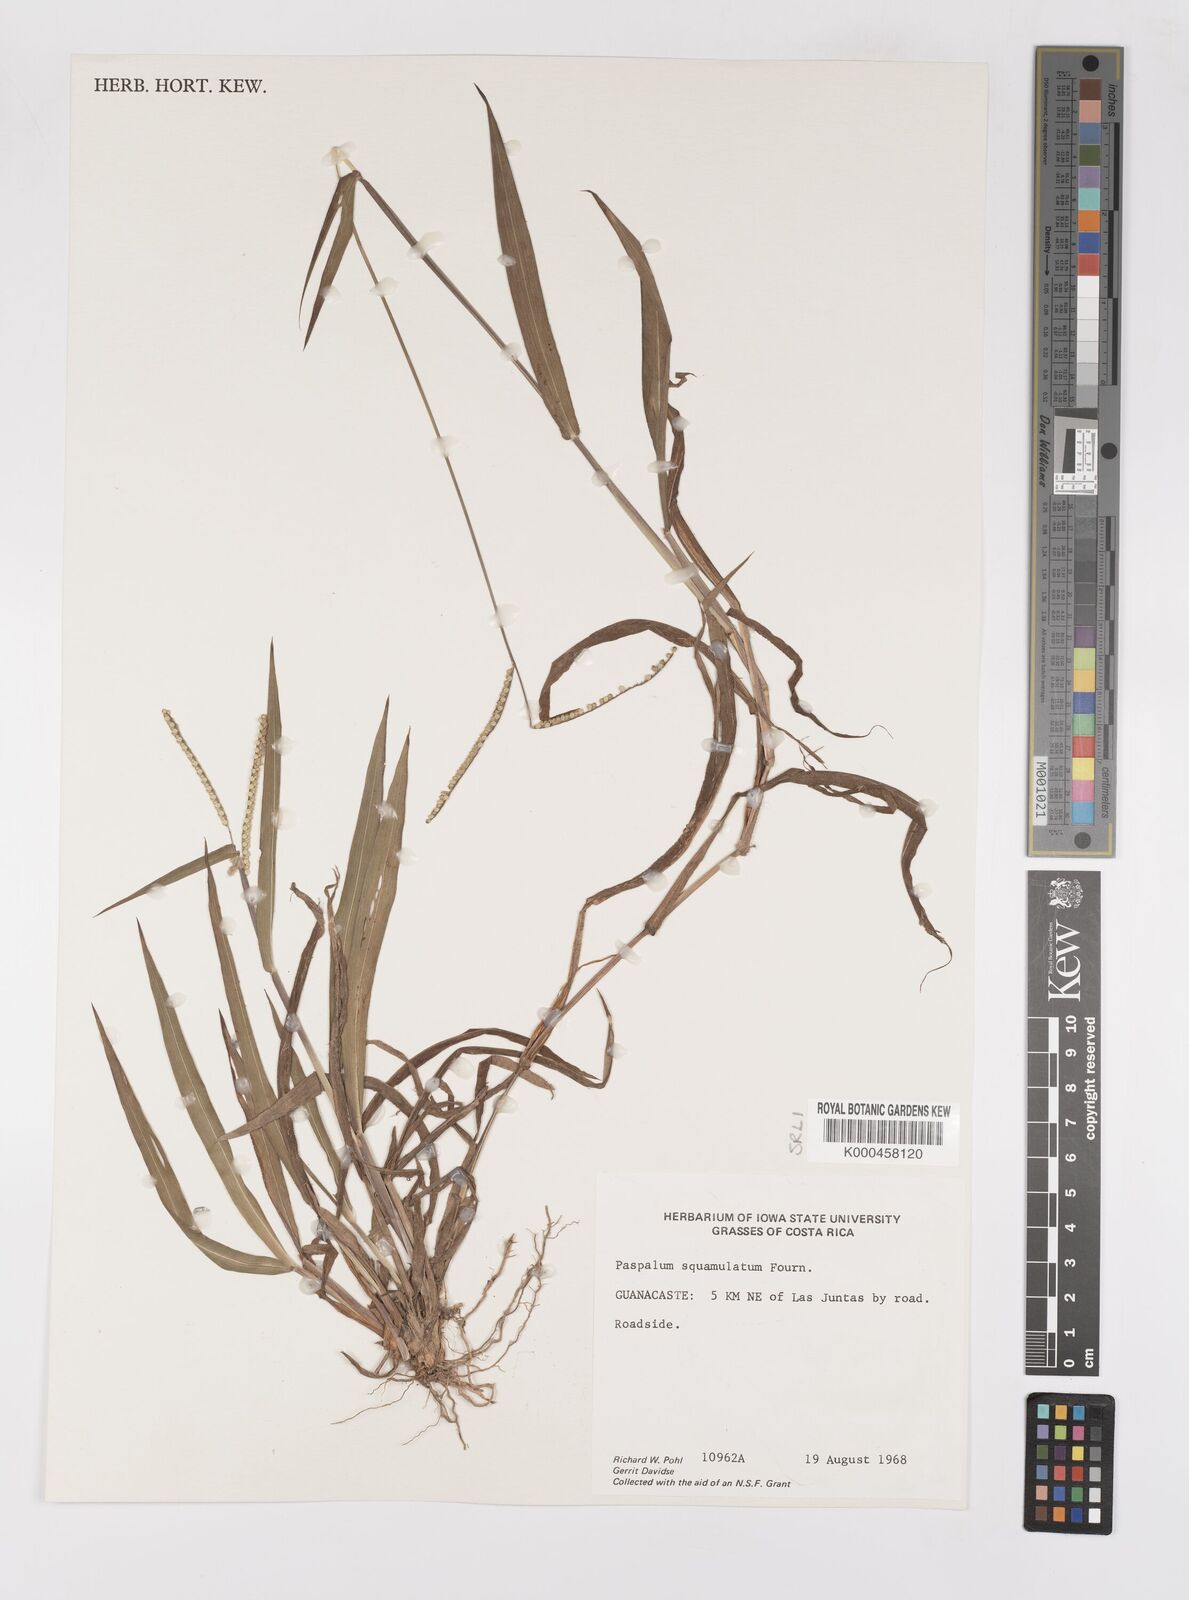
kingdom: Plantae
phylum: Tracheophyta
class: Liliopsida
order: Poales
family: Poaceae
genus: Paspalum
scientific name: Paspalum
